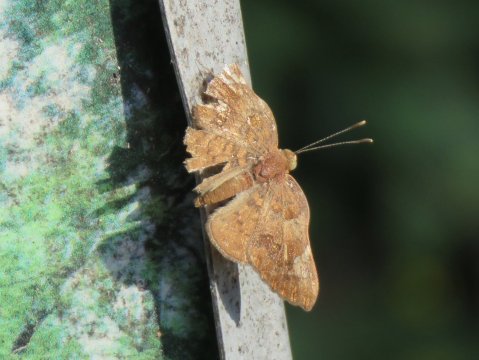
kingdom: Animalia
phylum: Arthropoda
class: Insecta
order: Lepidoptera
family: Lycaenidae
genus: Emesis
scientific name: Emesis emesia
